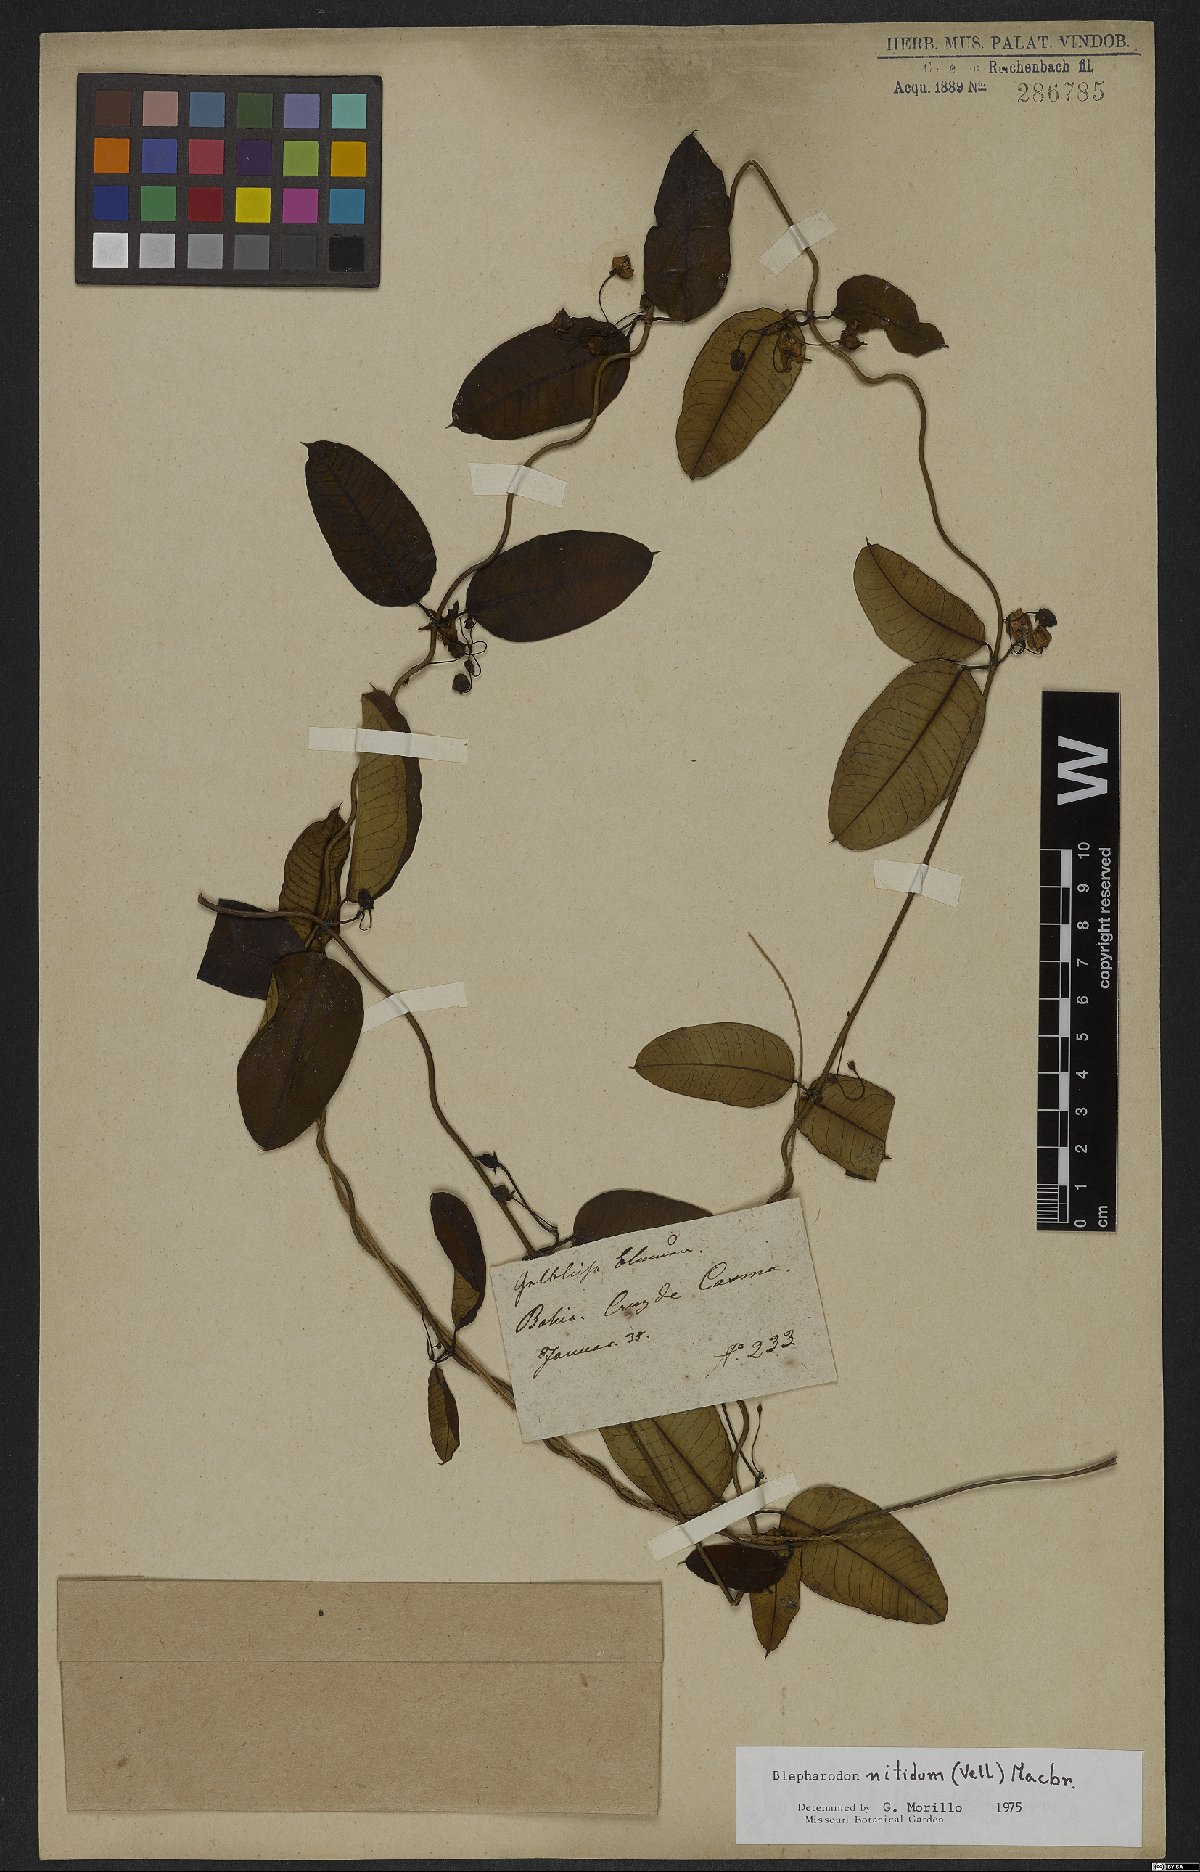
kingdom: Plantae
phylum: Tracheophyta
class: Magnoliopsida
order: Gentianales
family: Apocynaceae
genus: Blepharodon
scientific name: Blepharodon pictum
